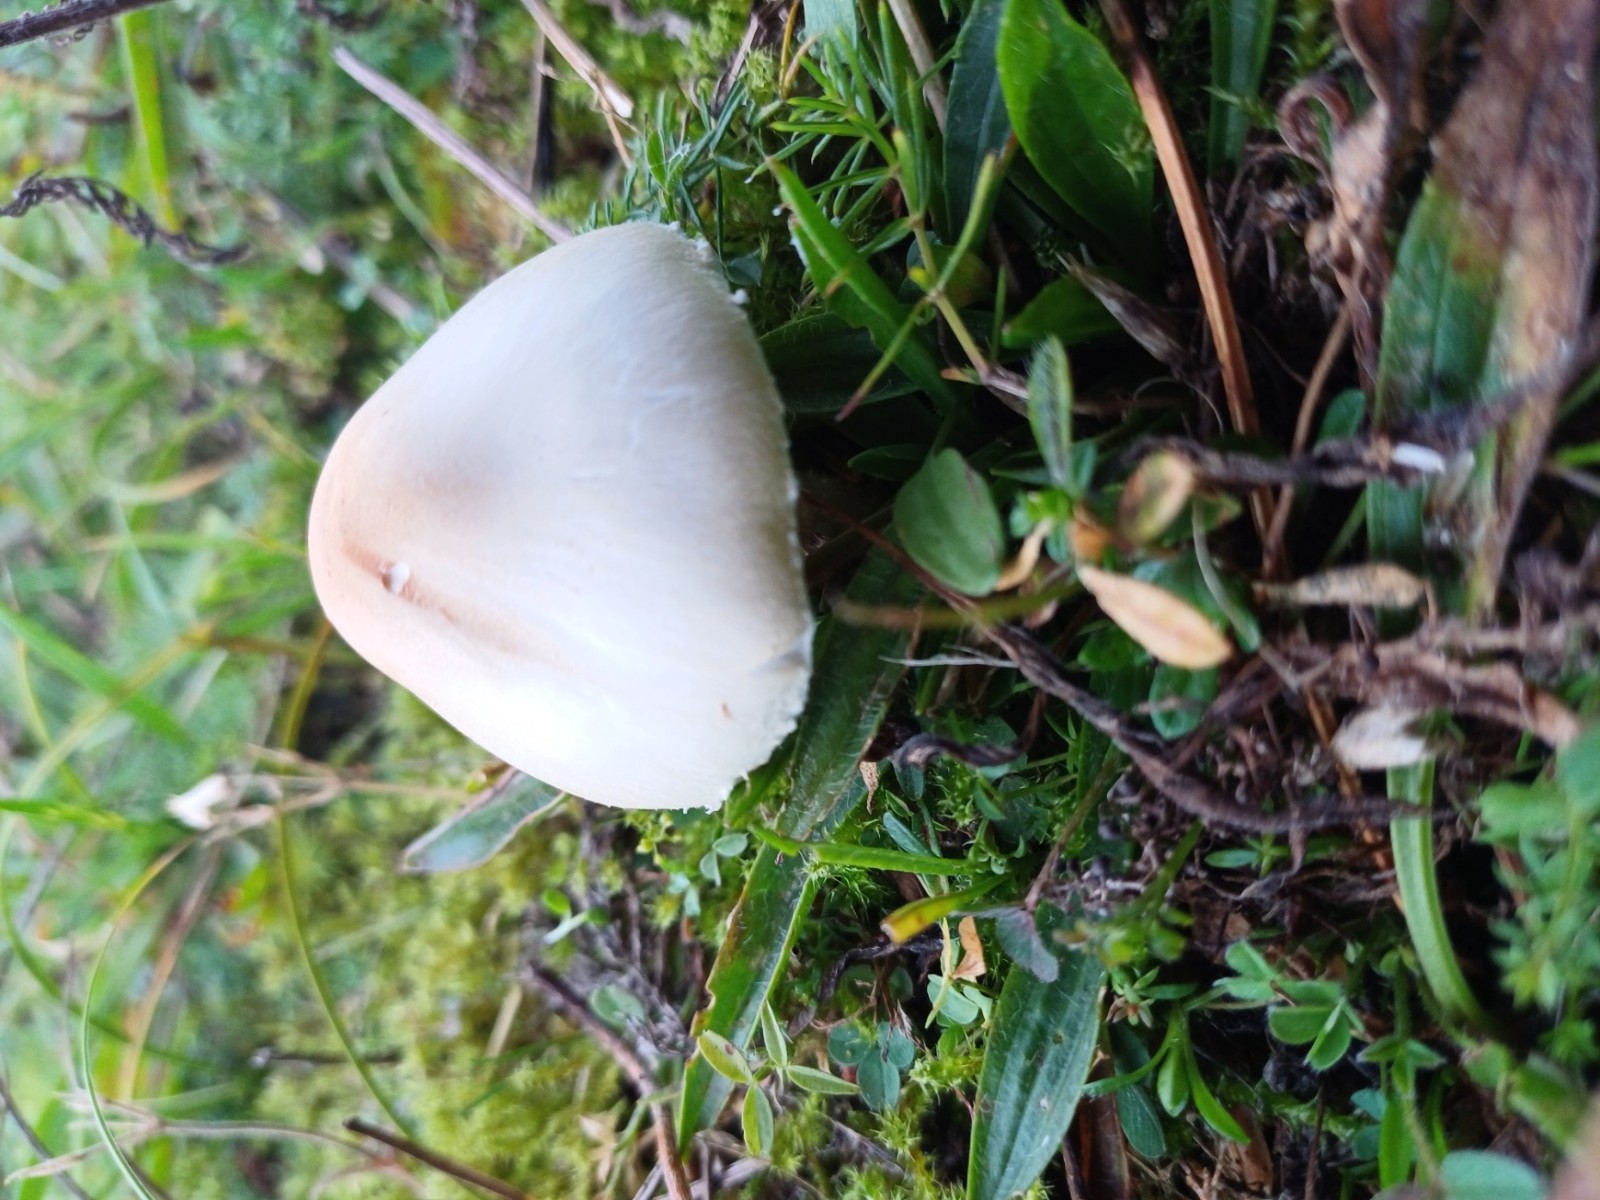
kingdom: Fungi
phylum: Basidiomycota
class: Agaricomycetes
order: Agaricales
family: Agaricaceae
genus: Lepiota
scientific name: Lepiota erminea
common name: hvid parasolhat
